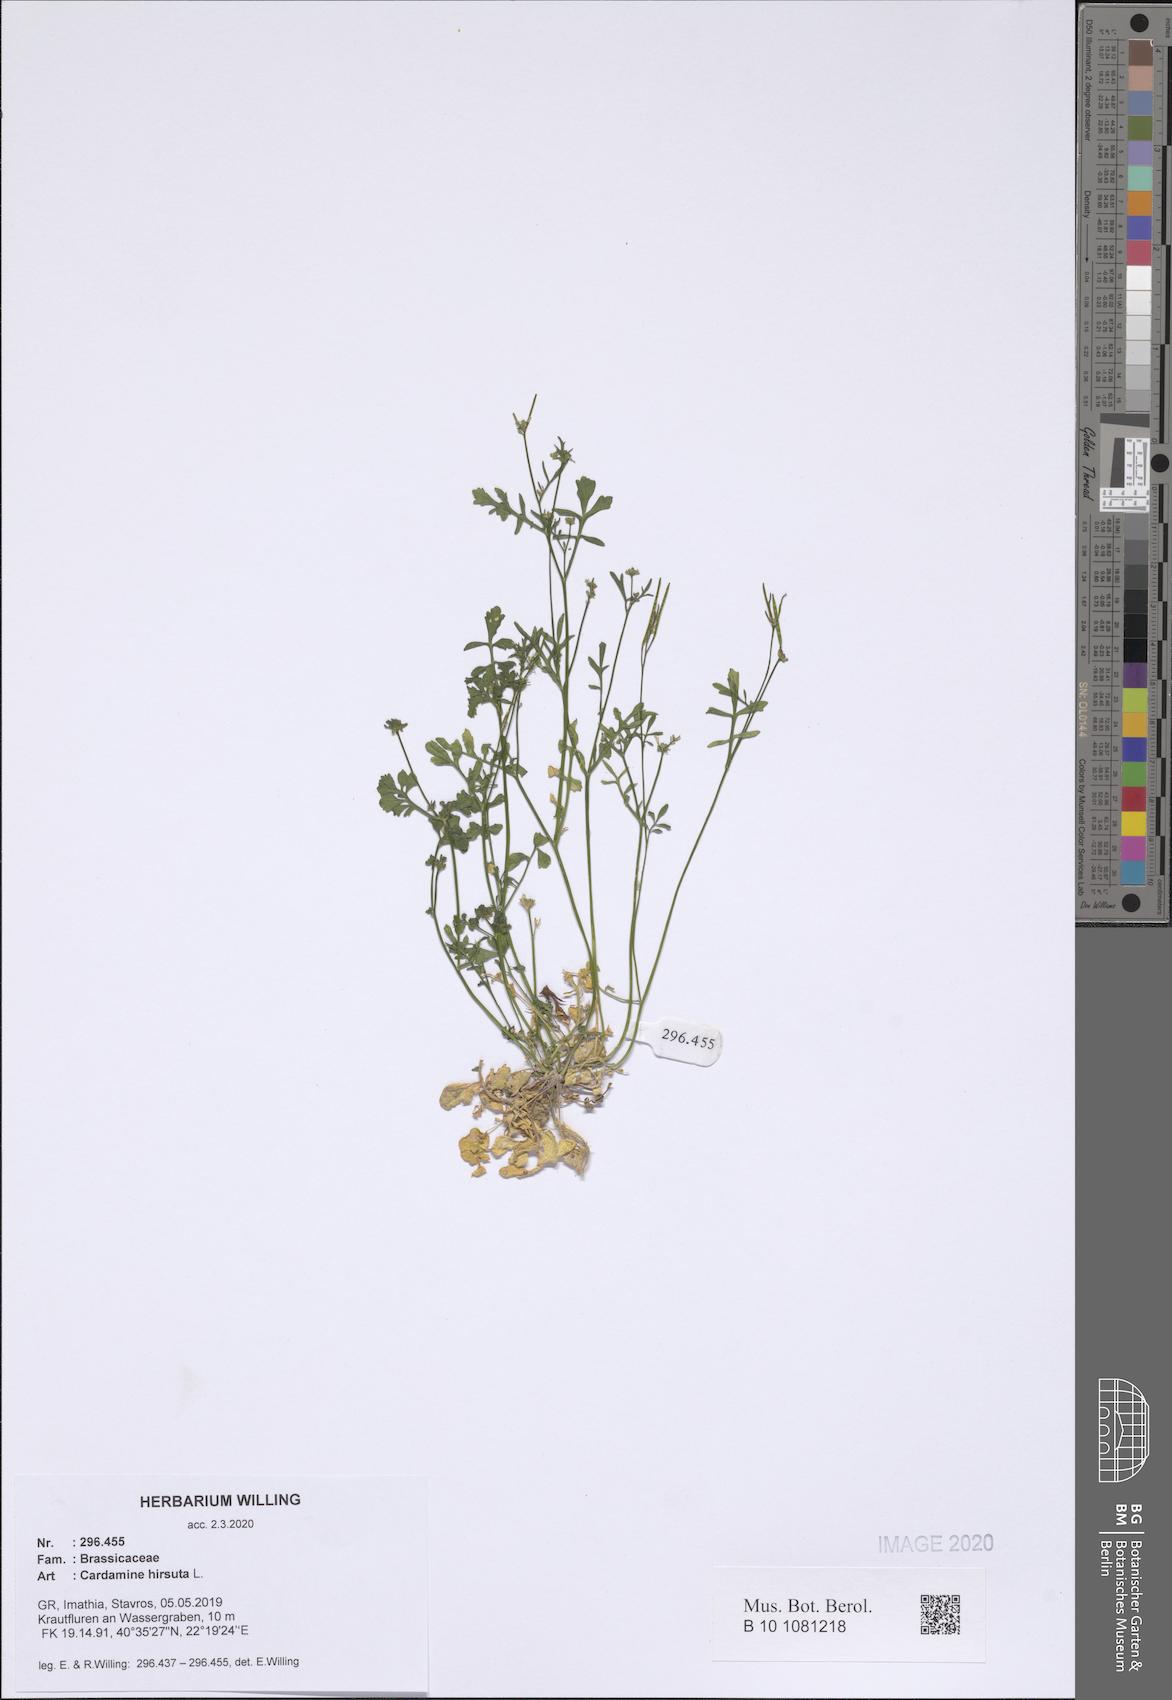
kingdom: Plantae
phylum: Tracheophyta
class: Magnoliopsida
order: Brassicales
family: Brassicaceae
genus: Cardamine
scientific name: Cardamine hirsuta
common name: Hairy bittercress
